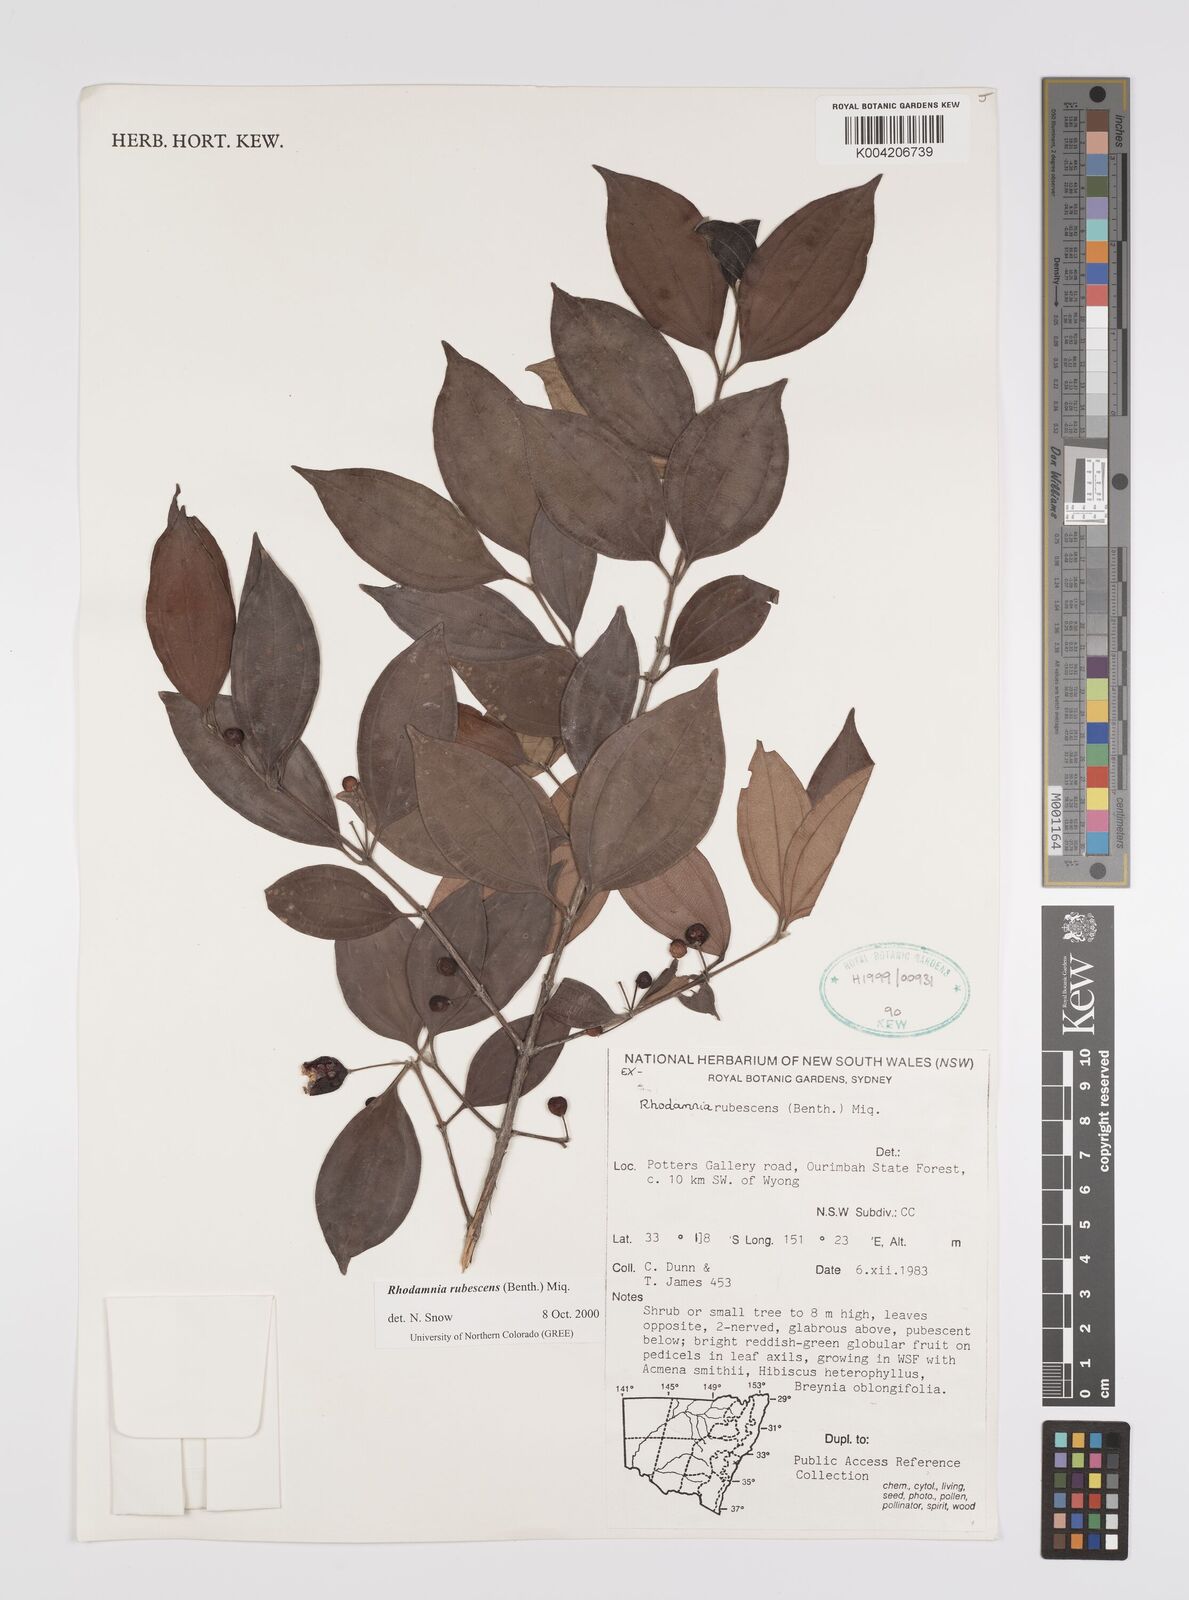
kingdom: Plantae
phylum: Tracheophyta
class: Magnoliopsida
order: Myrtales
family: Myrtaceae
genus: Rhodamnia
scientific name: Rhodamnia rubescens
